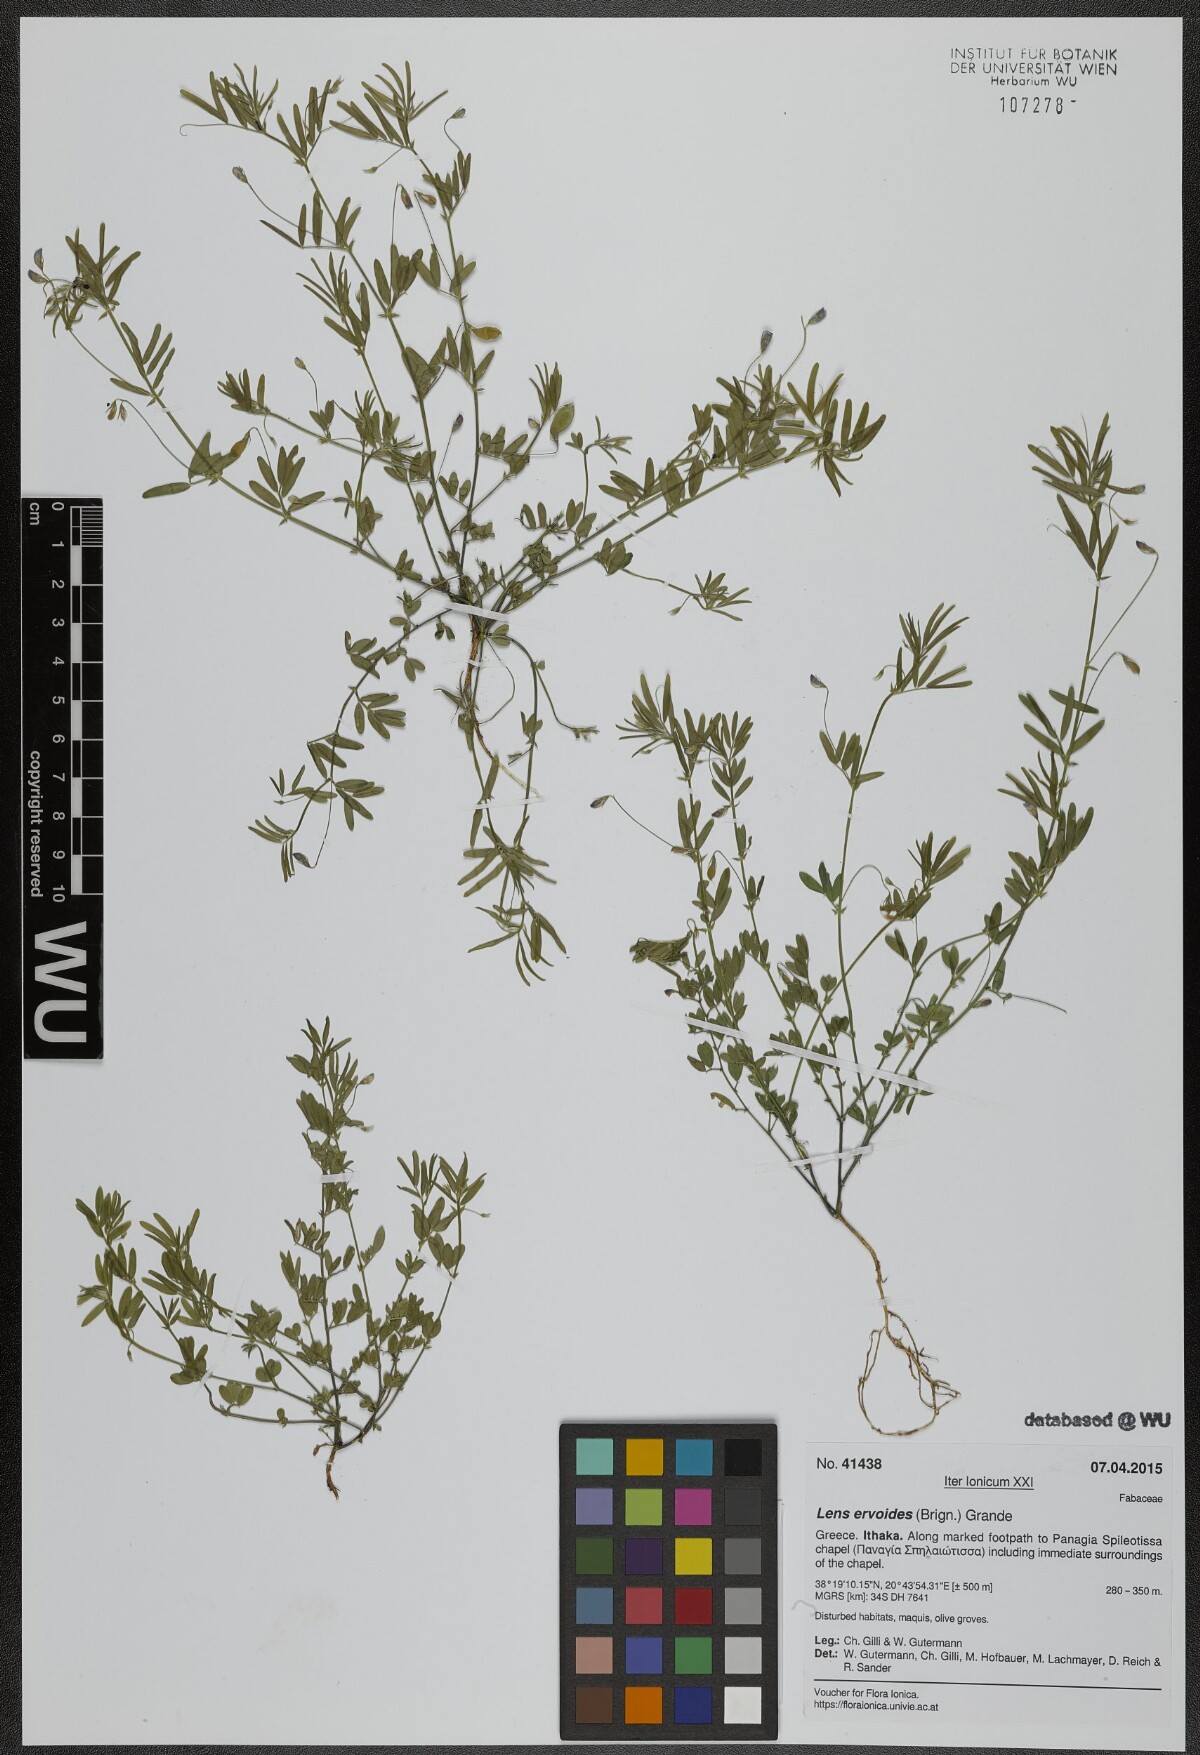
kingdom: Plantae
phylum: Tracheophyta
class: Magnoliopsida
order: Fabales
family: Fabaceae
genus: Vicia
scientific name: Vicia lenticula
